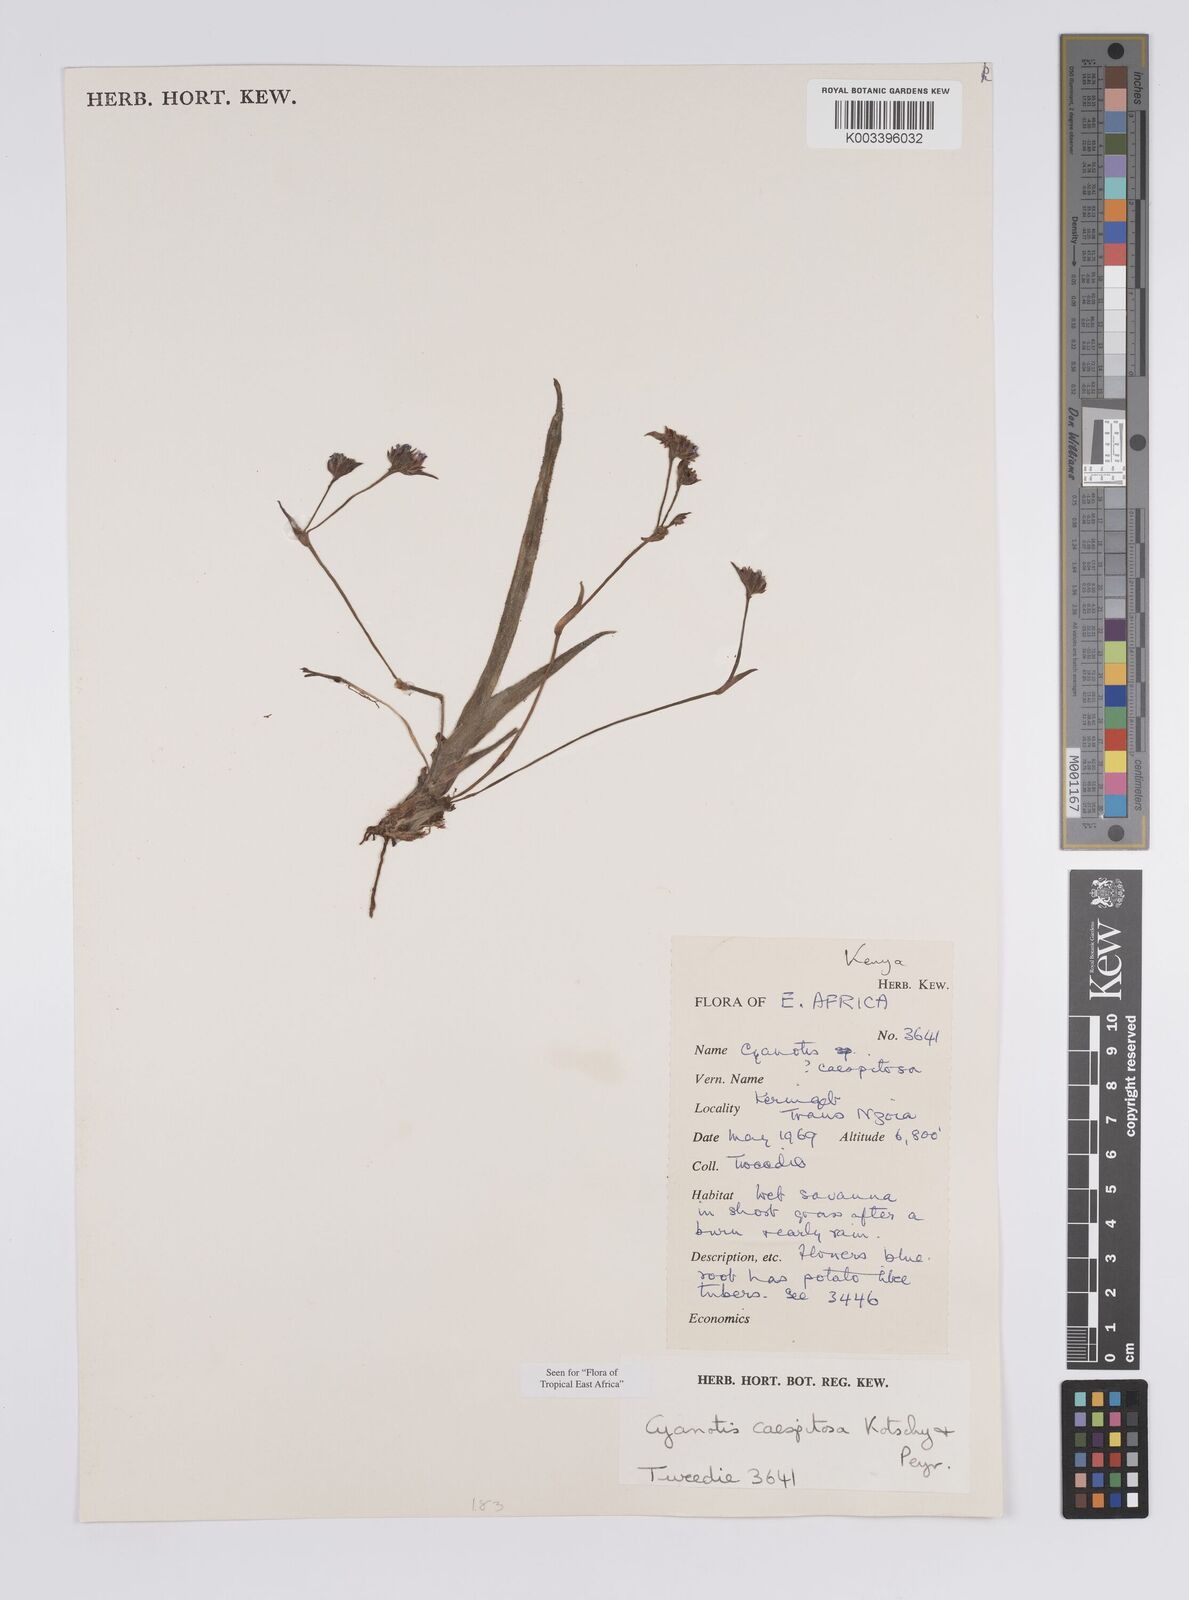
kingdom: Plantae
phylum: Tracheophyta
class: Liliopsida
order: Commelinales
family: Commelinaceae
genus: Cyanotis
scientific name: Cyanotis caespitosa
